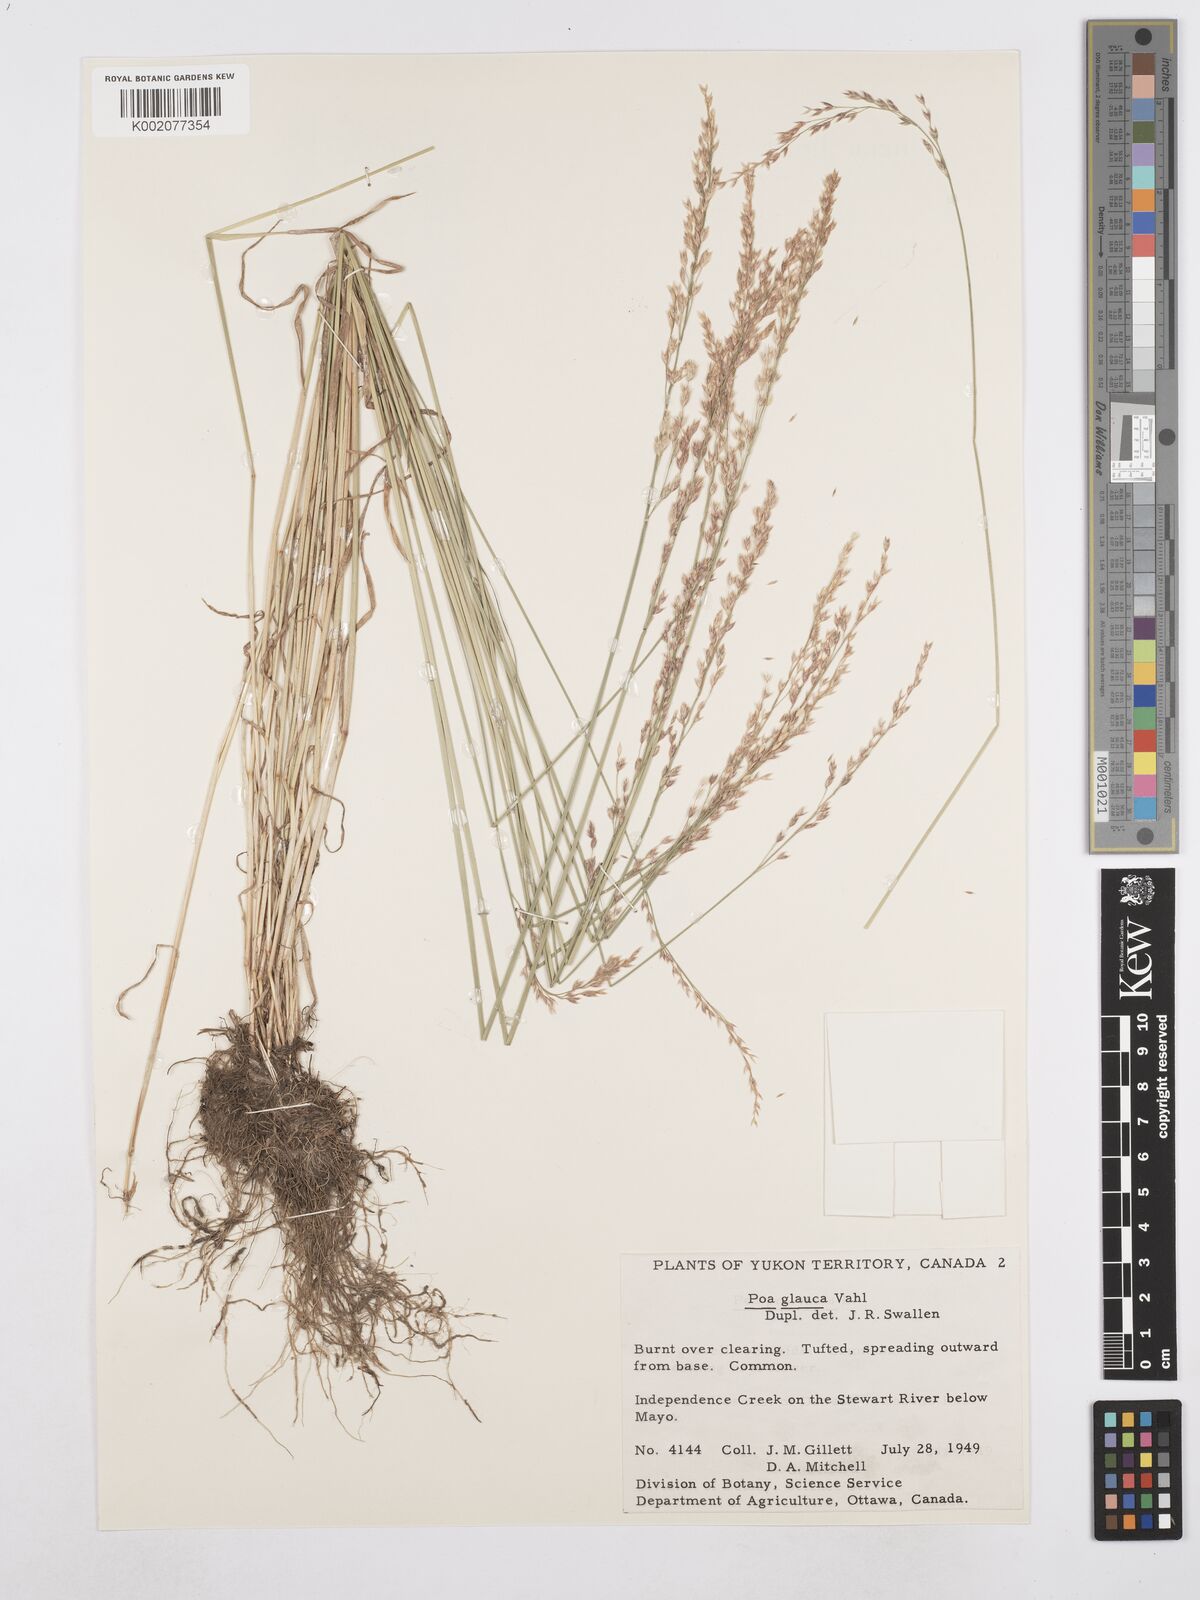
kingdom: Plantae
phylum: Tracheophyta
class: Liliopsida
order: Poales
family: Poaceae
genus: Poa
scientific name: Poa glauca
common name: Glaucous bluegrass
